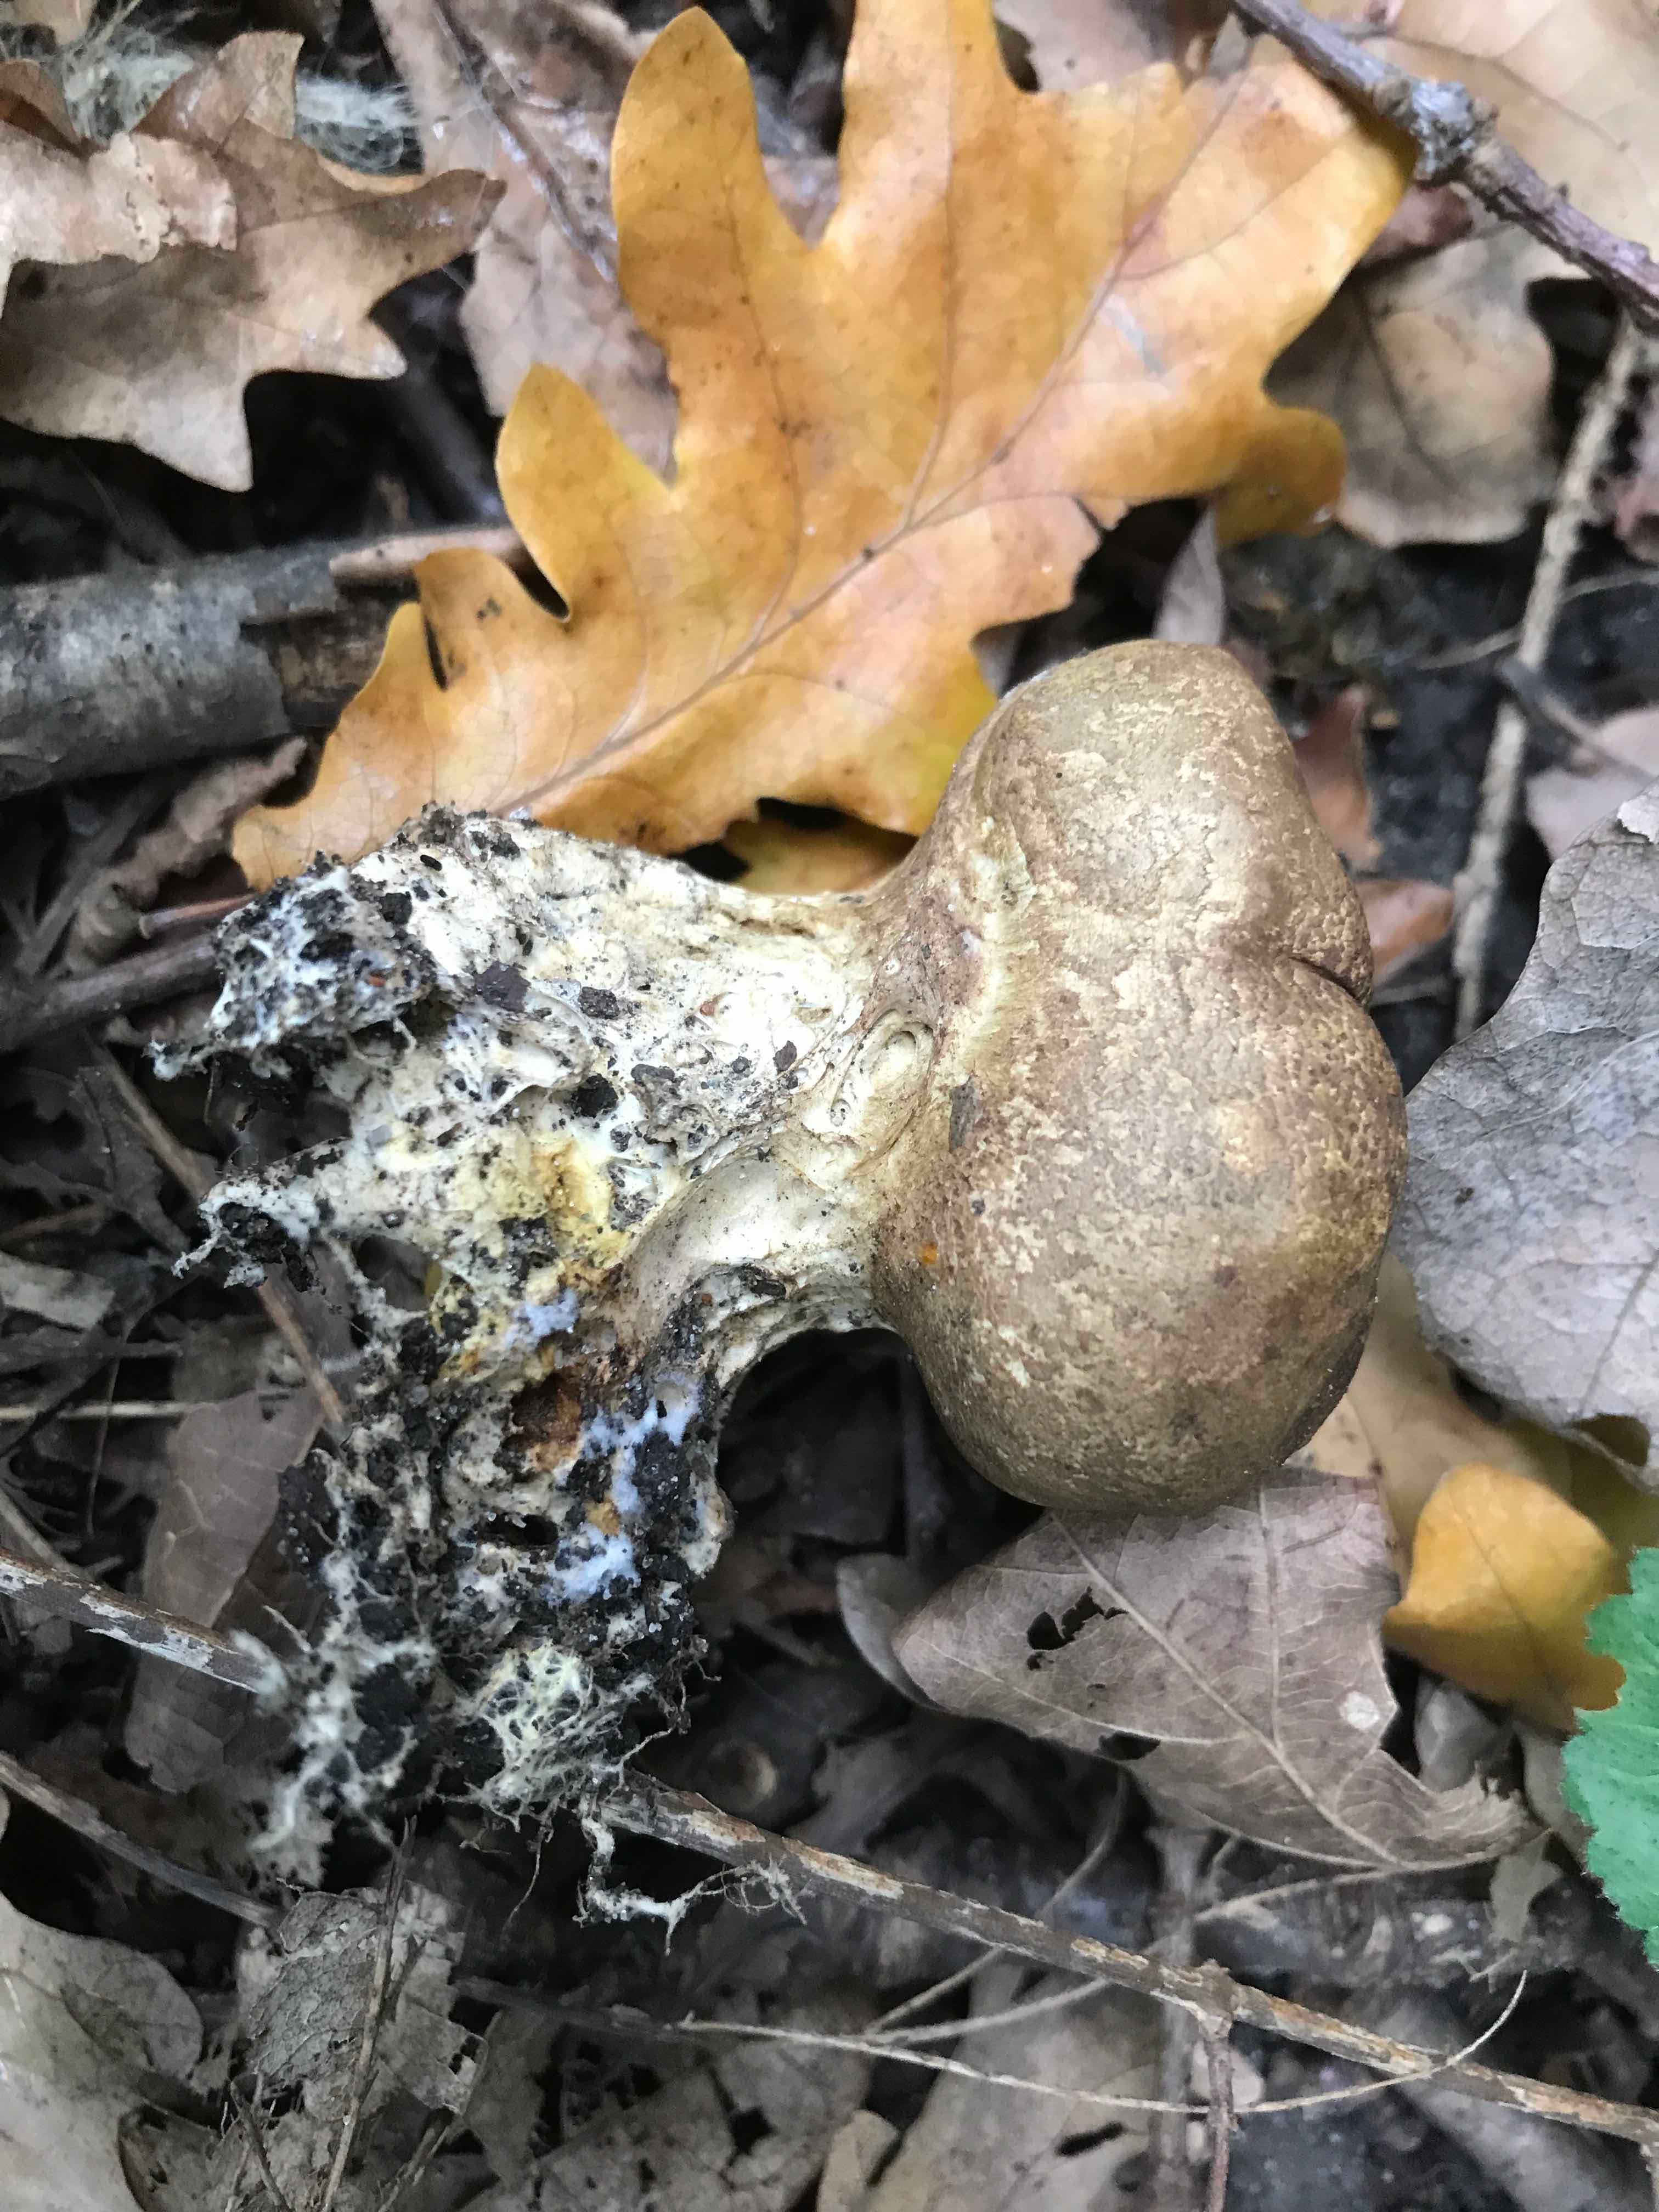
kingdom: Fungi
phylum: Basidiomycota
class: Agaricomycetes
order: Boletales
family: Sclerodermataceae
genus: Scleroderma
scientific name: Scleroderma verrucosum
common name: stilket bruskbold
